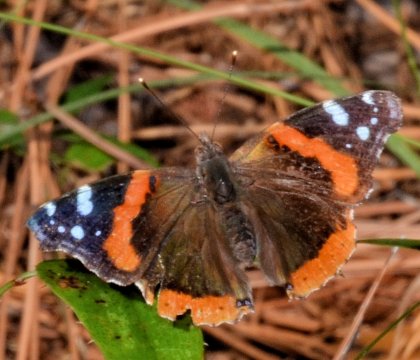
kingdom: Animalia
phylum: Arthropoda
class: Insecta
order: Lepidoptera
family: Nymphalidae
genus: Vanessa
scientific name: Vanessa atalanta
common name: Red Admiral
